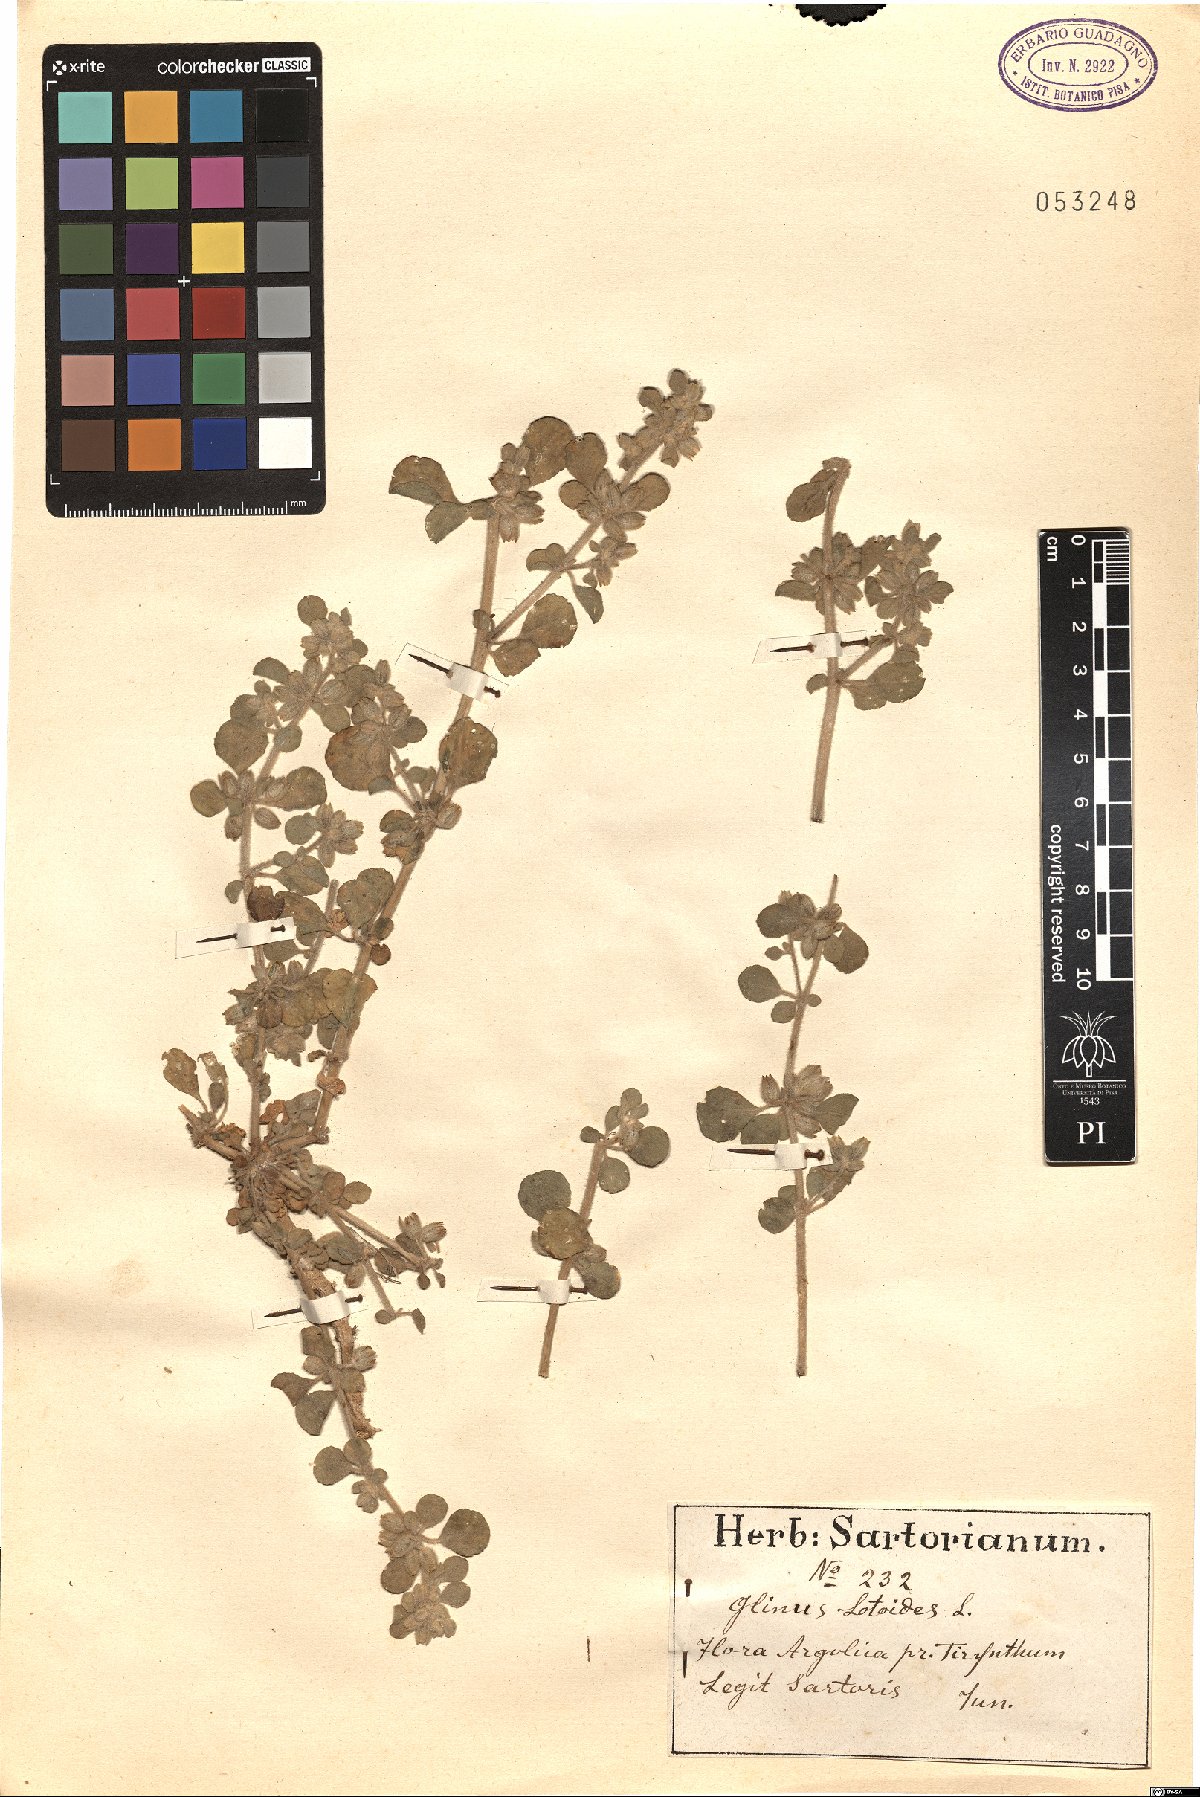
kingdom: Plantae
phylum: Tracheophyta
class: Magnoliopsida
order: Caryophyllales
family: Molluginaceae
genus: Glinus
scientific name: Glinus lotoides
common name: Lotus sweetjuice
